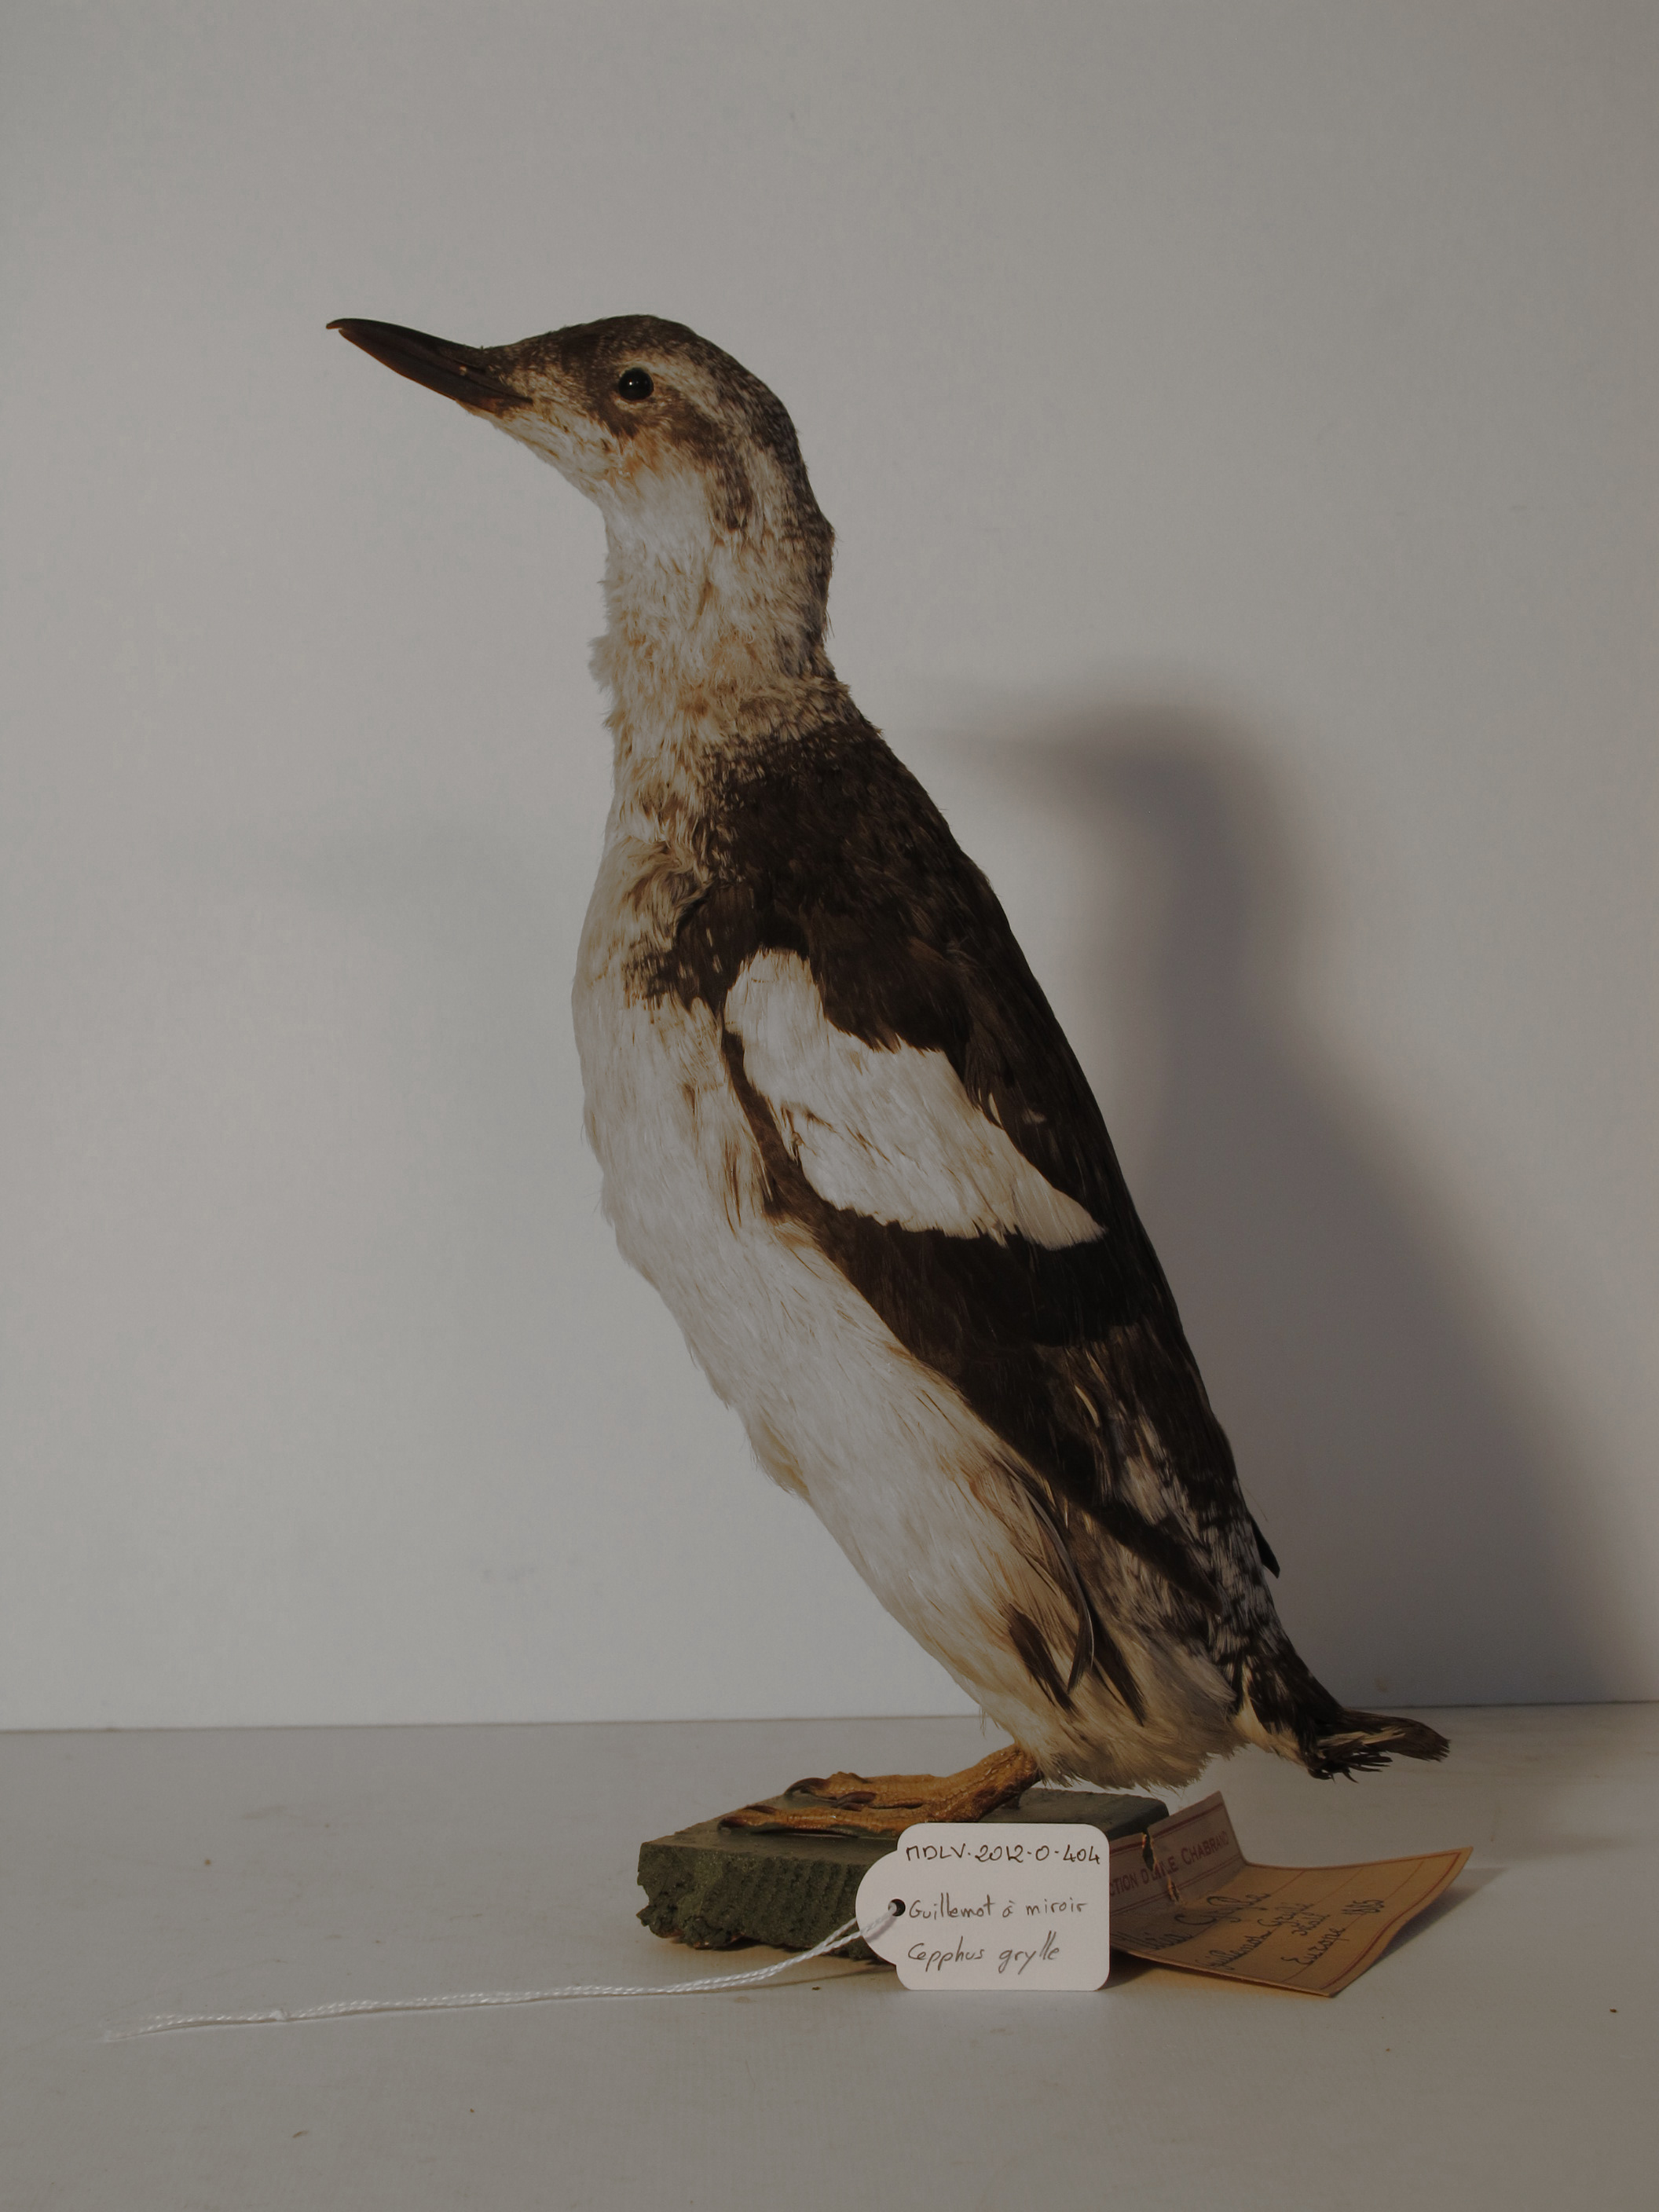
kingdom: Animalia
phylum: Chordata
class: Aves
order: Charadriiformes
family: Alcidae
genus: Cepphus
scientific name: Cepphus grylle
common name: Black Guillemot
